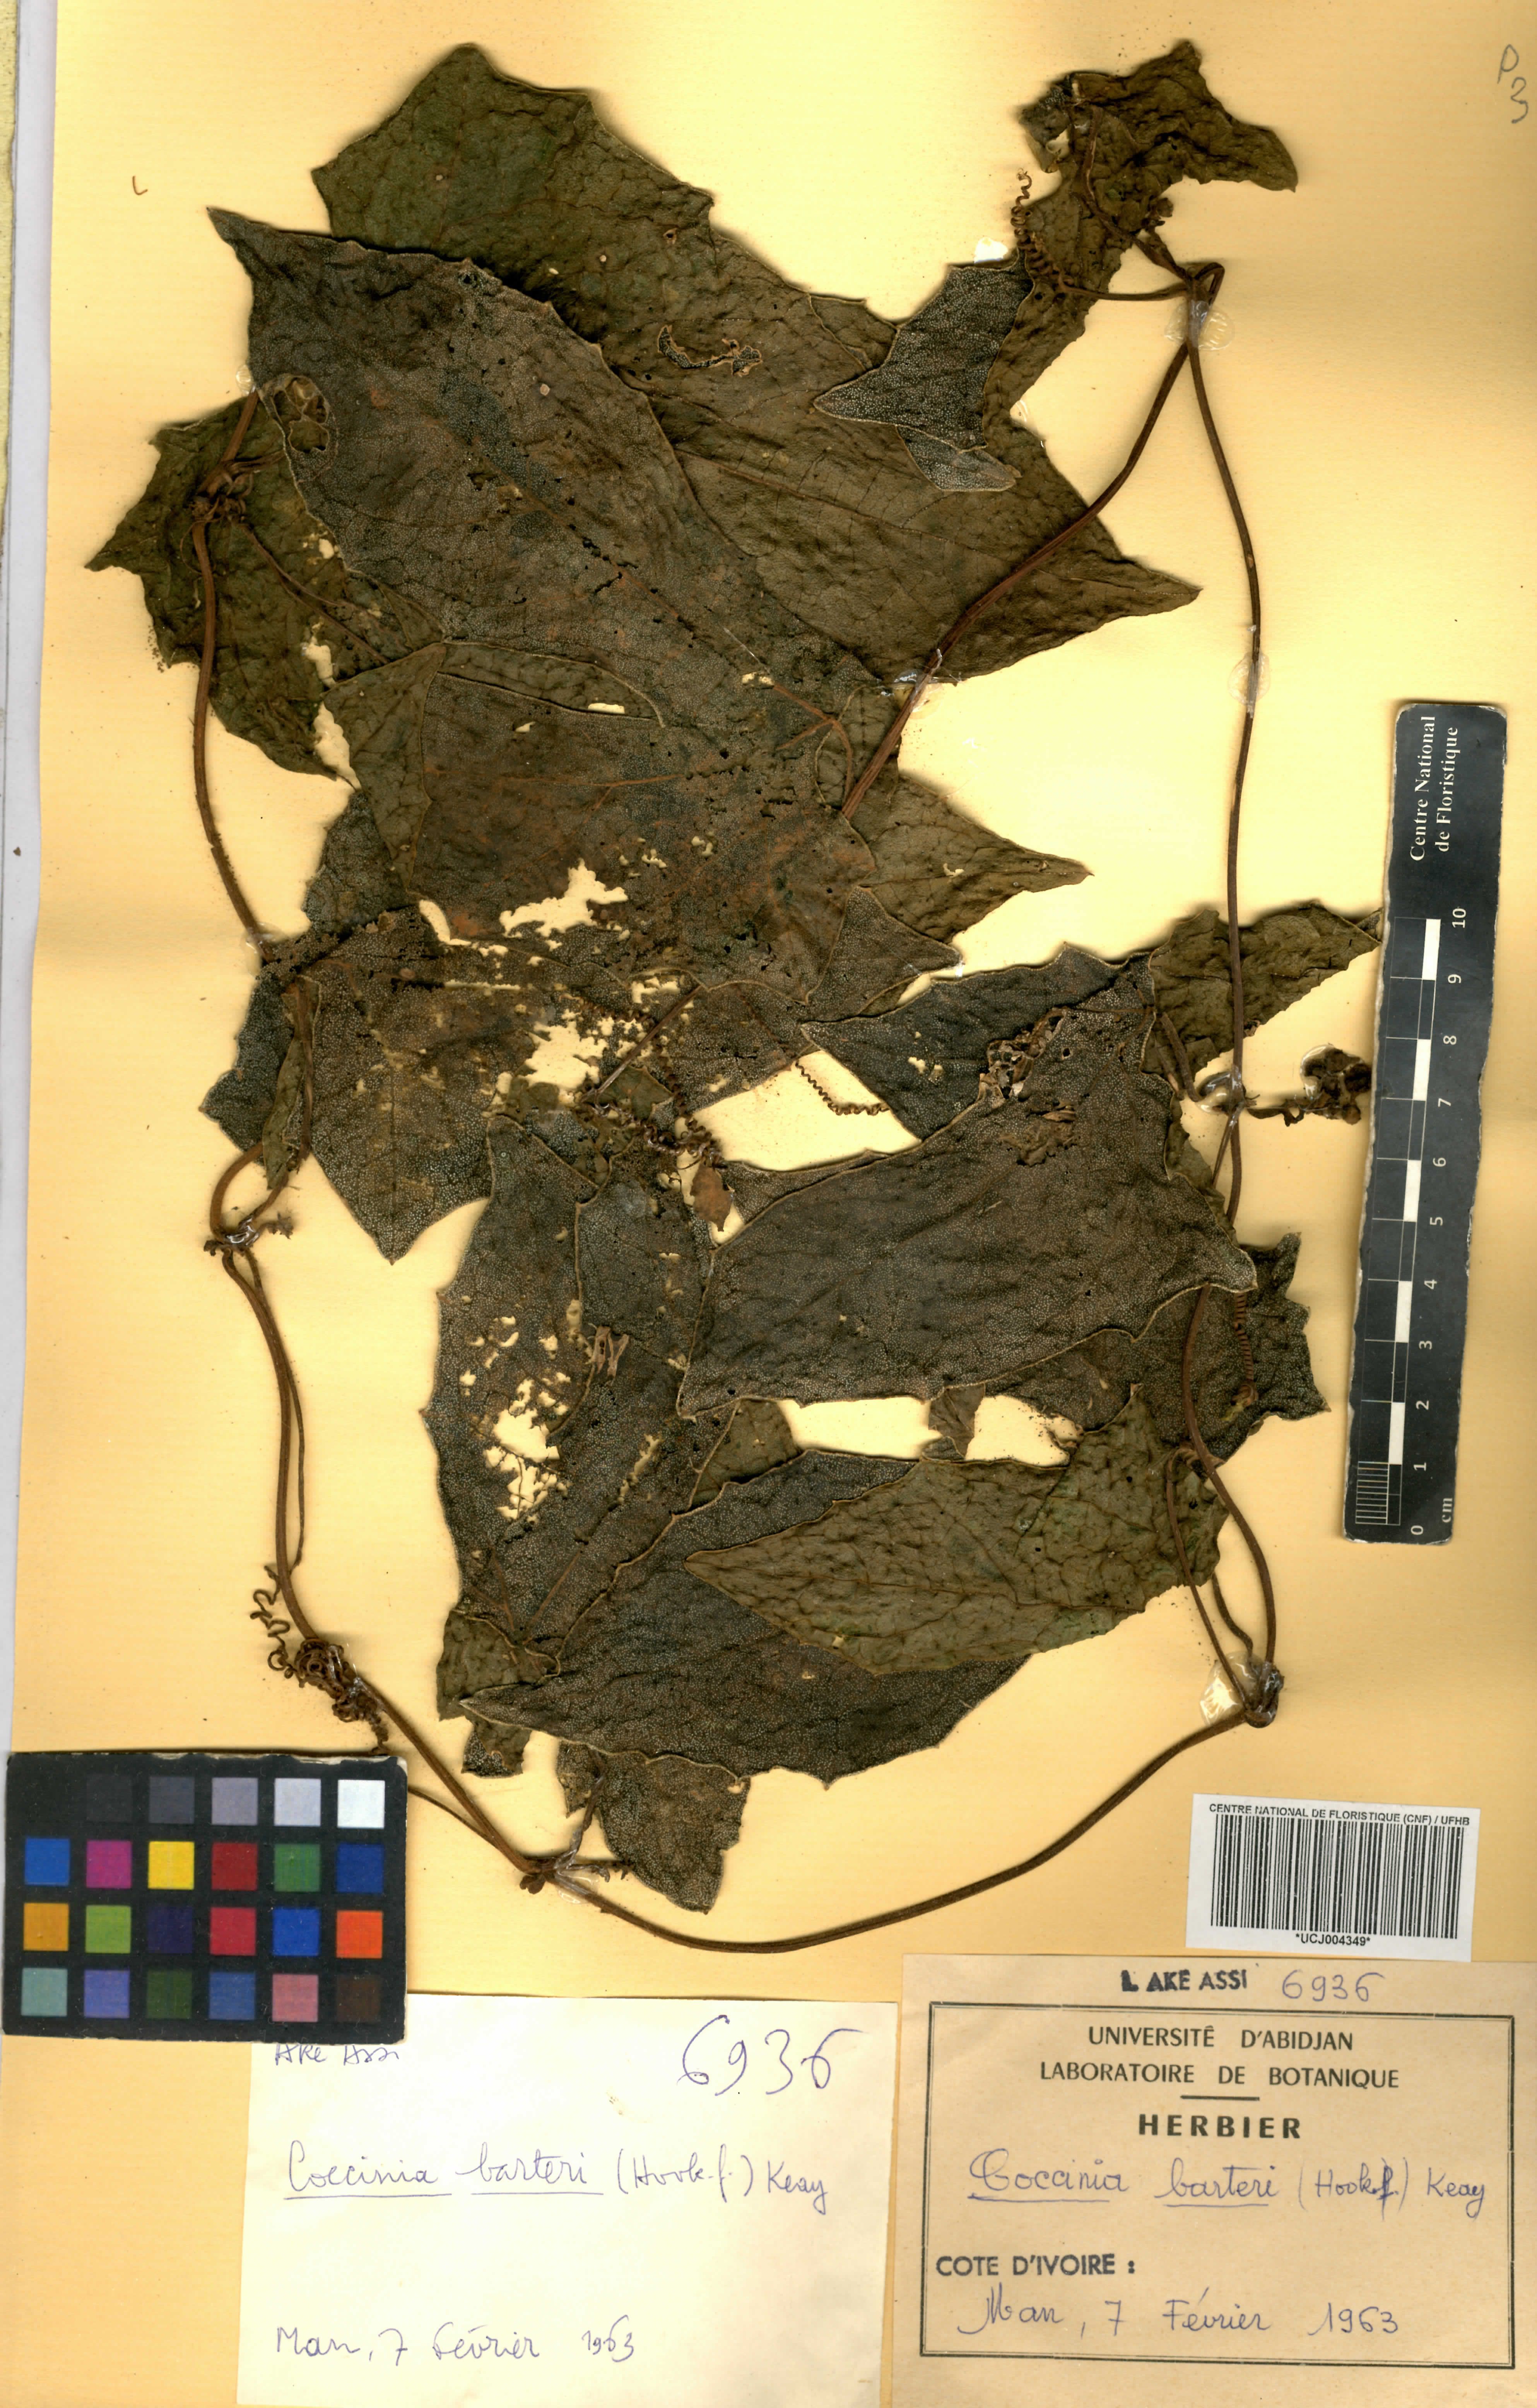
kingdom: Plantae
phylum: Tracheophyta
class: Magnoliopsida
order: Cucurbitales
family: Cucurbitaceae
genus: Coccinia
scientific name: Coccinia barteri
